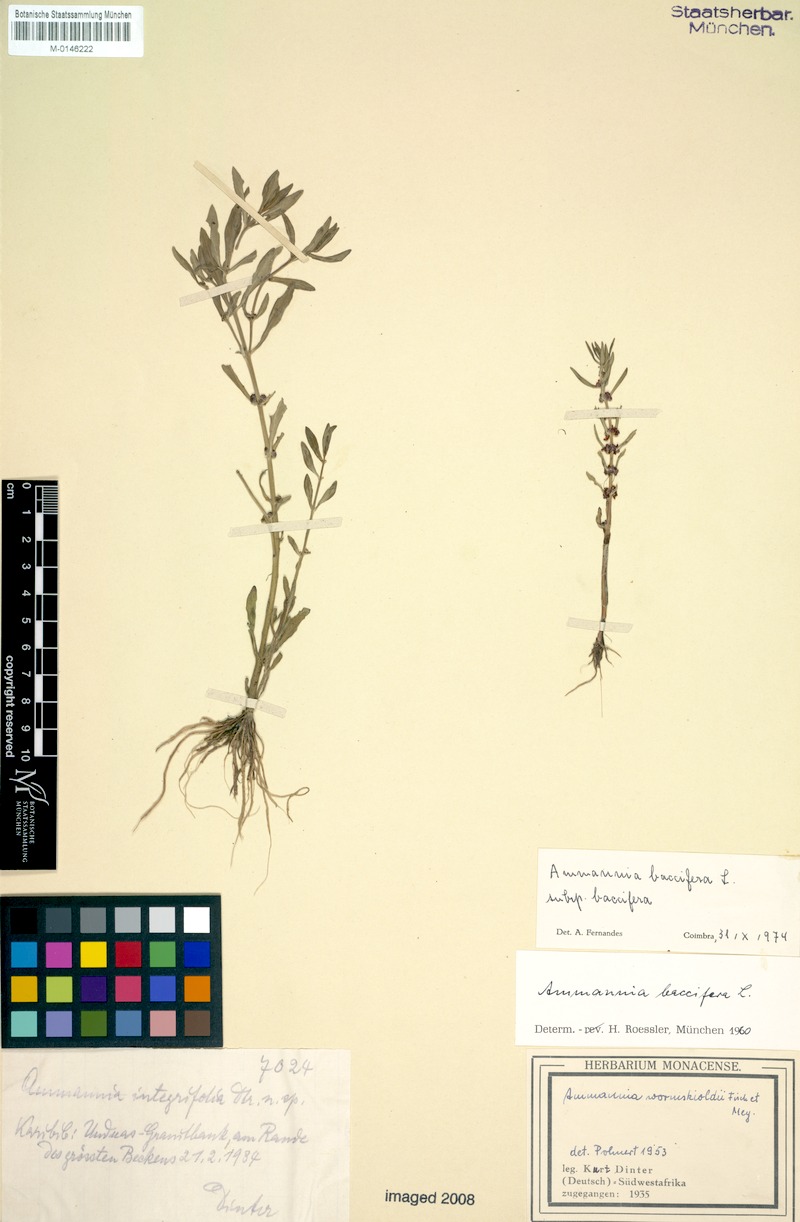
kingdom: Plantae
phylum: Tracheophyta
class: Magnoliopsida
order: Myrtales
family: Lythraceae
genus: Ammannia
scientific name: Ammannia baccifera
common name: Blistering ammania
